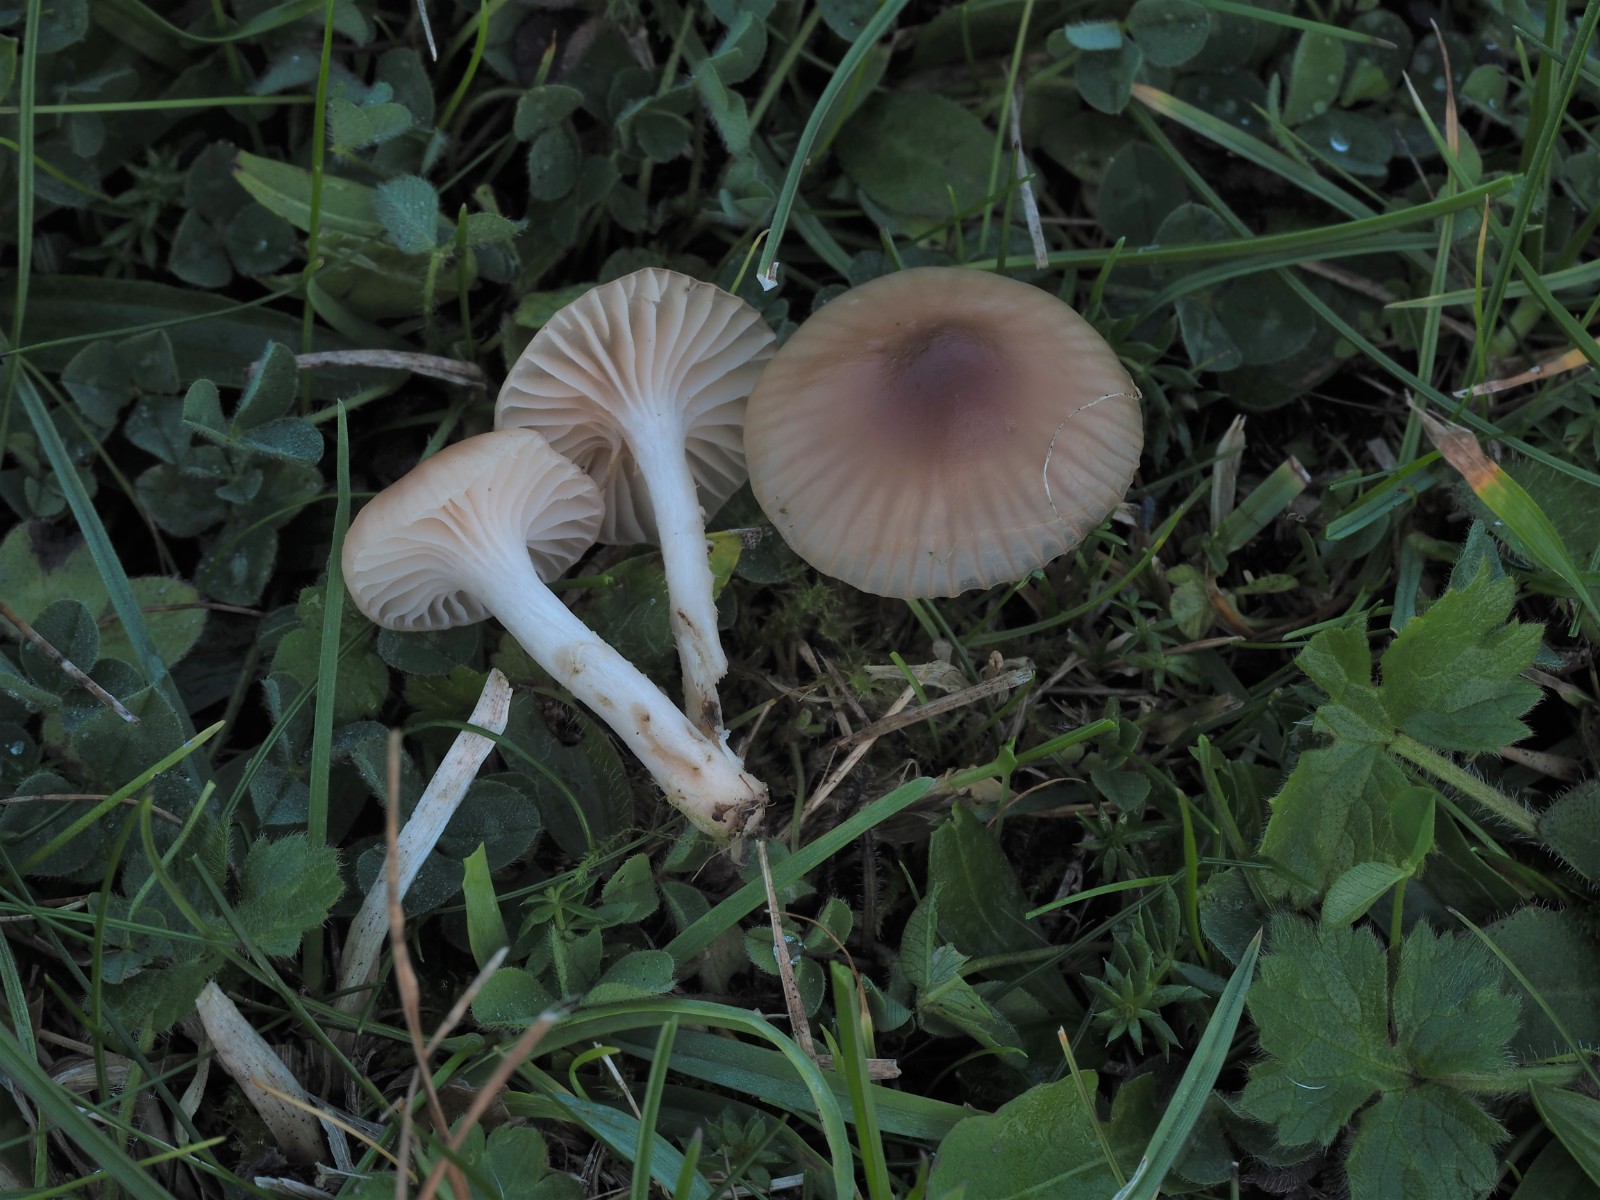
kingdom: Fungi
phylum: Basidiomycota
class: Agaricomycetes
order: Agaricales
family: Hygrophoraceae
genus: Cuphophyllus
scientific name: Cuphophyllus virgineus
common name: brunøjet vokshat
